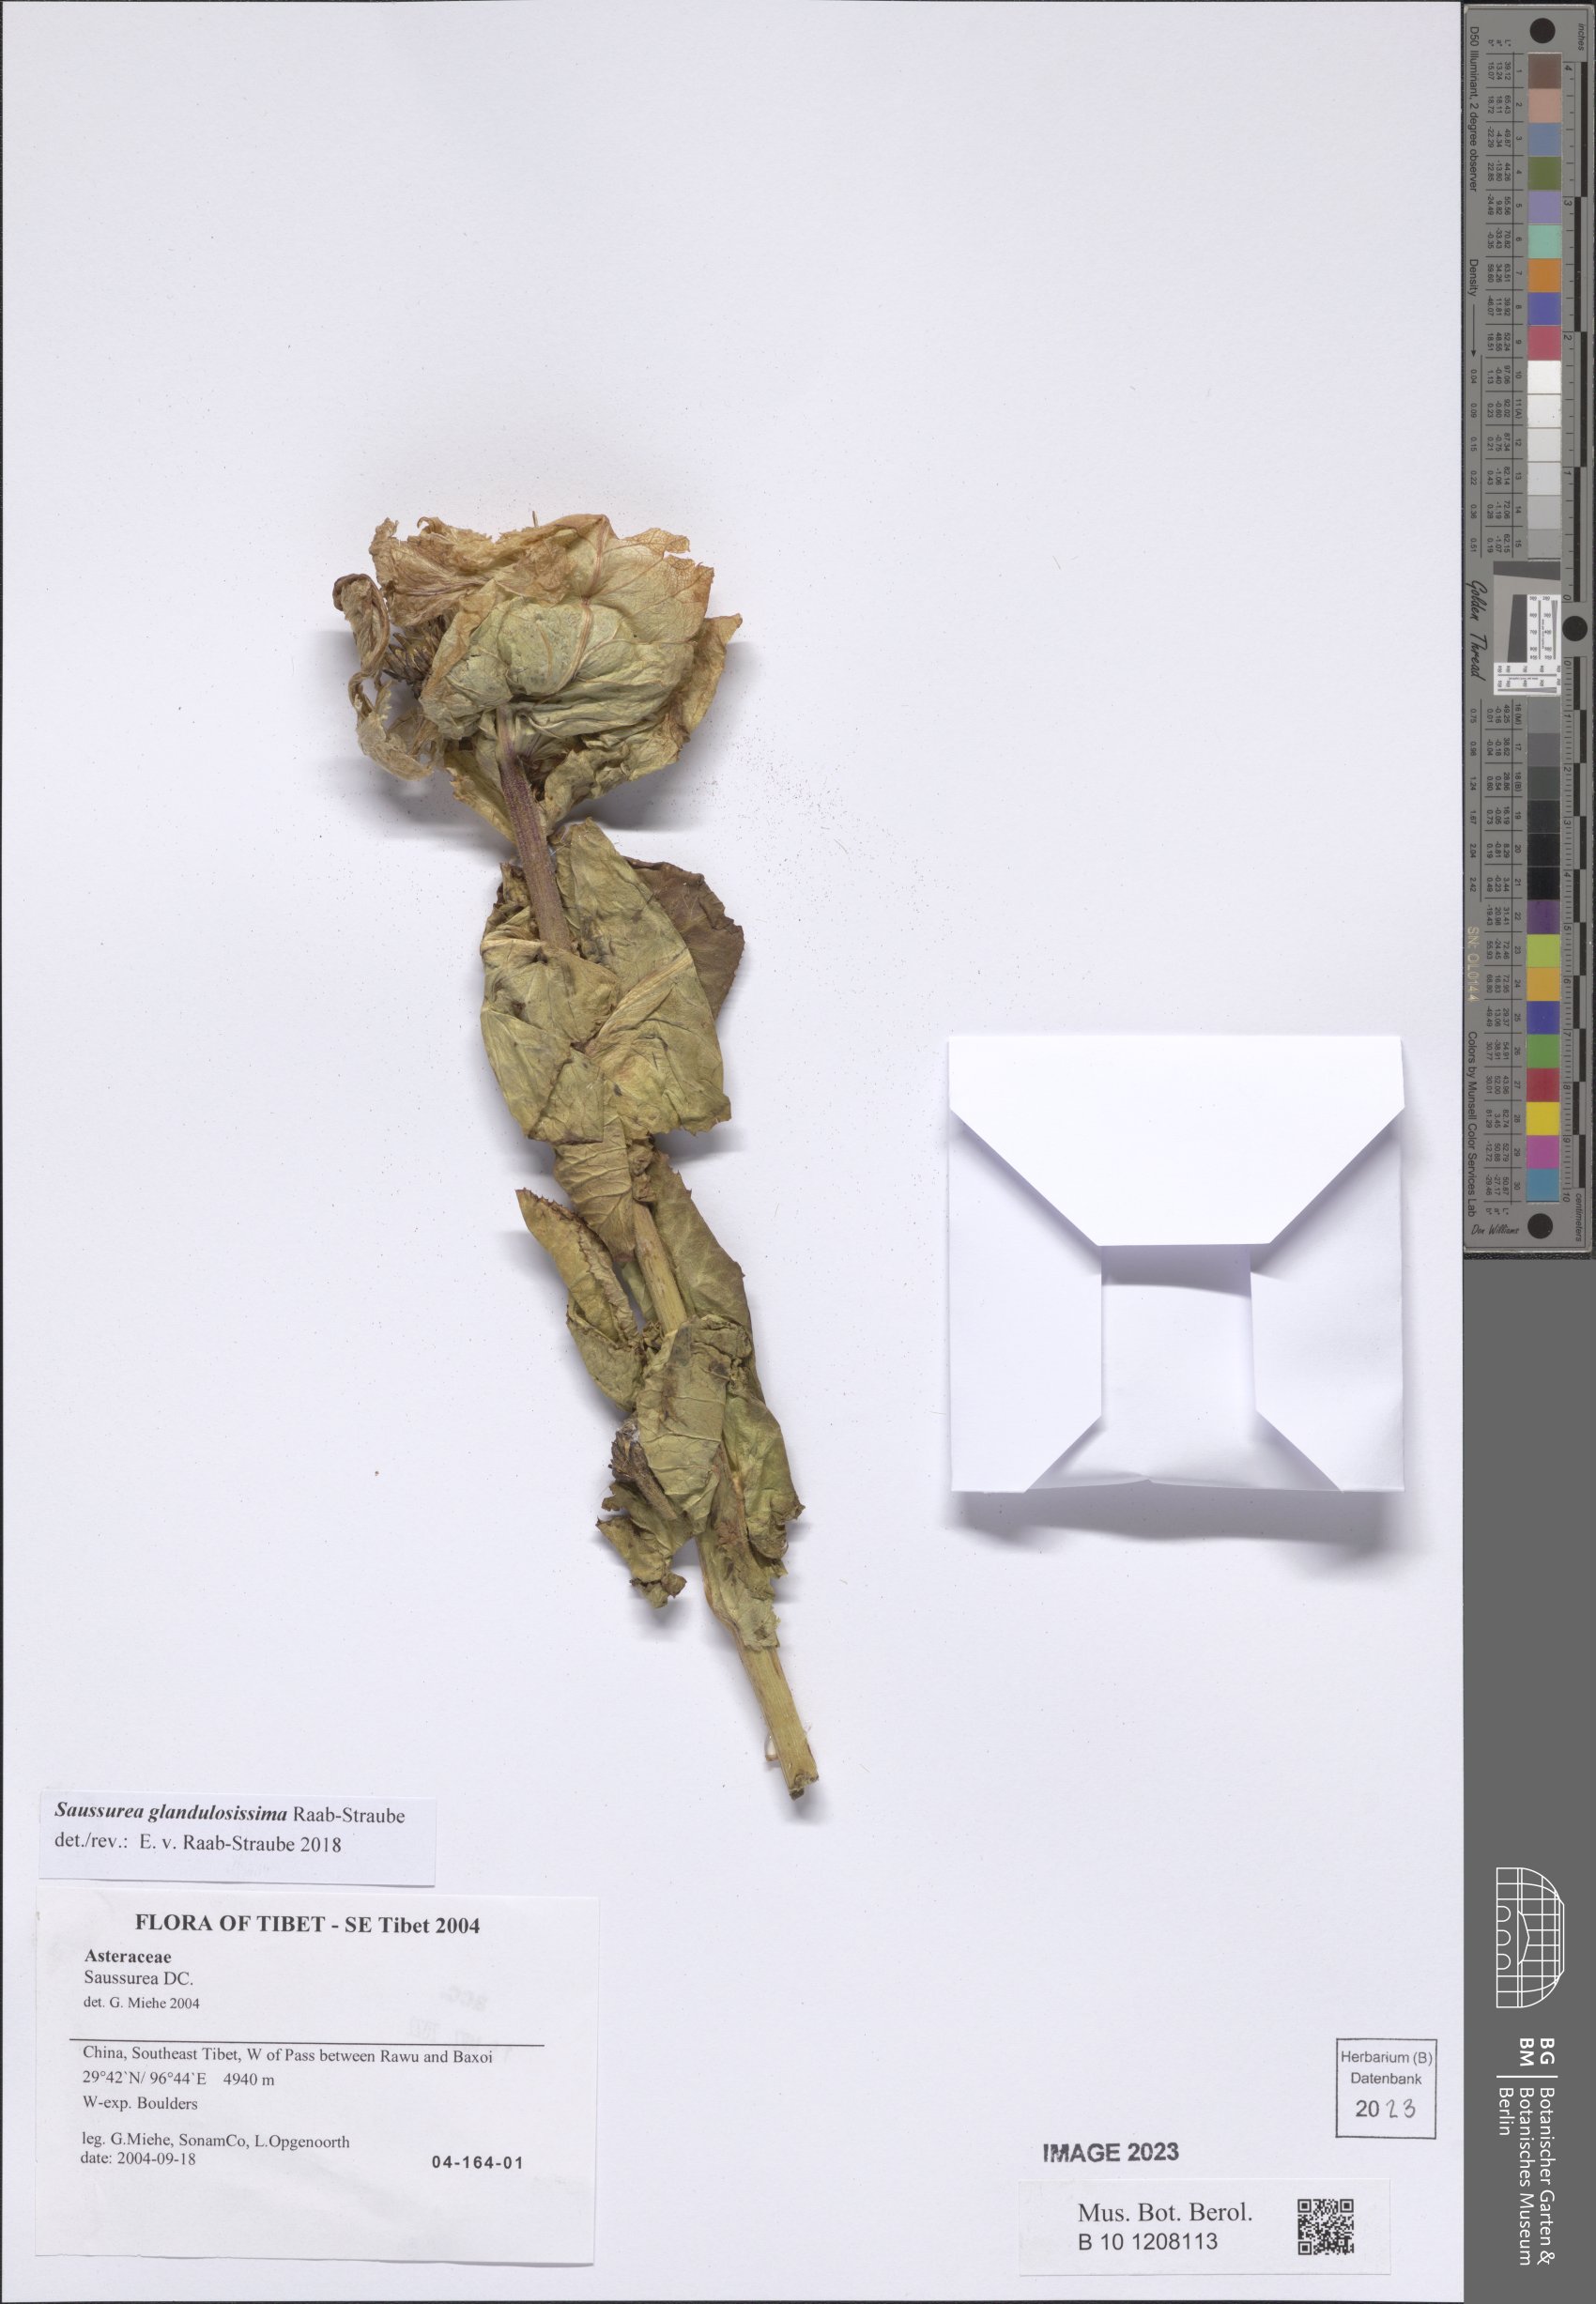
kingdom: Plantae
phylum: Tracheophyta
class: Magnoliopsida
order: Asterales
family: Asteraceae
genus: Saussurea
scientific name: Saussurea glandulosissima
